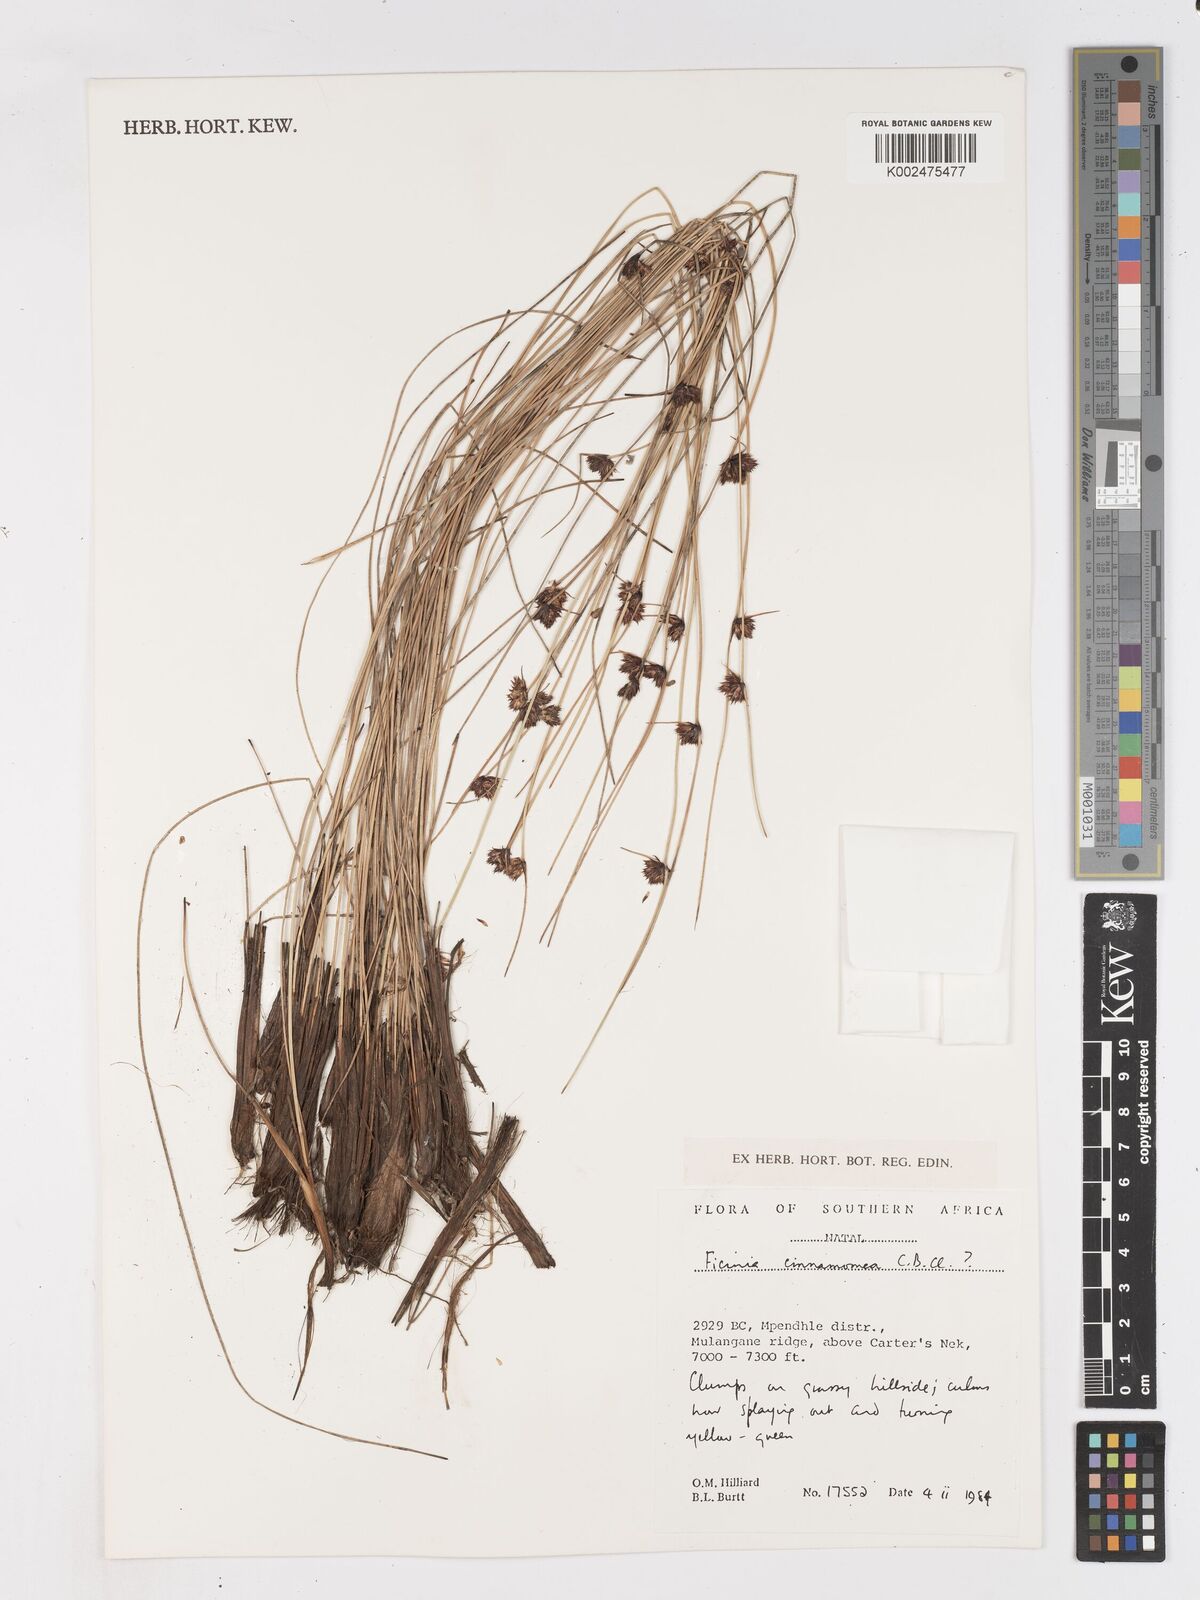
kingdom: Plantae
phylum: Tracheophyta
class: Liliopsida
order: Poales
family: Cyperaceae
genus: Ficinia
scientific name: Ficinia cinnamomea
